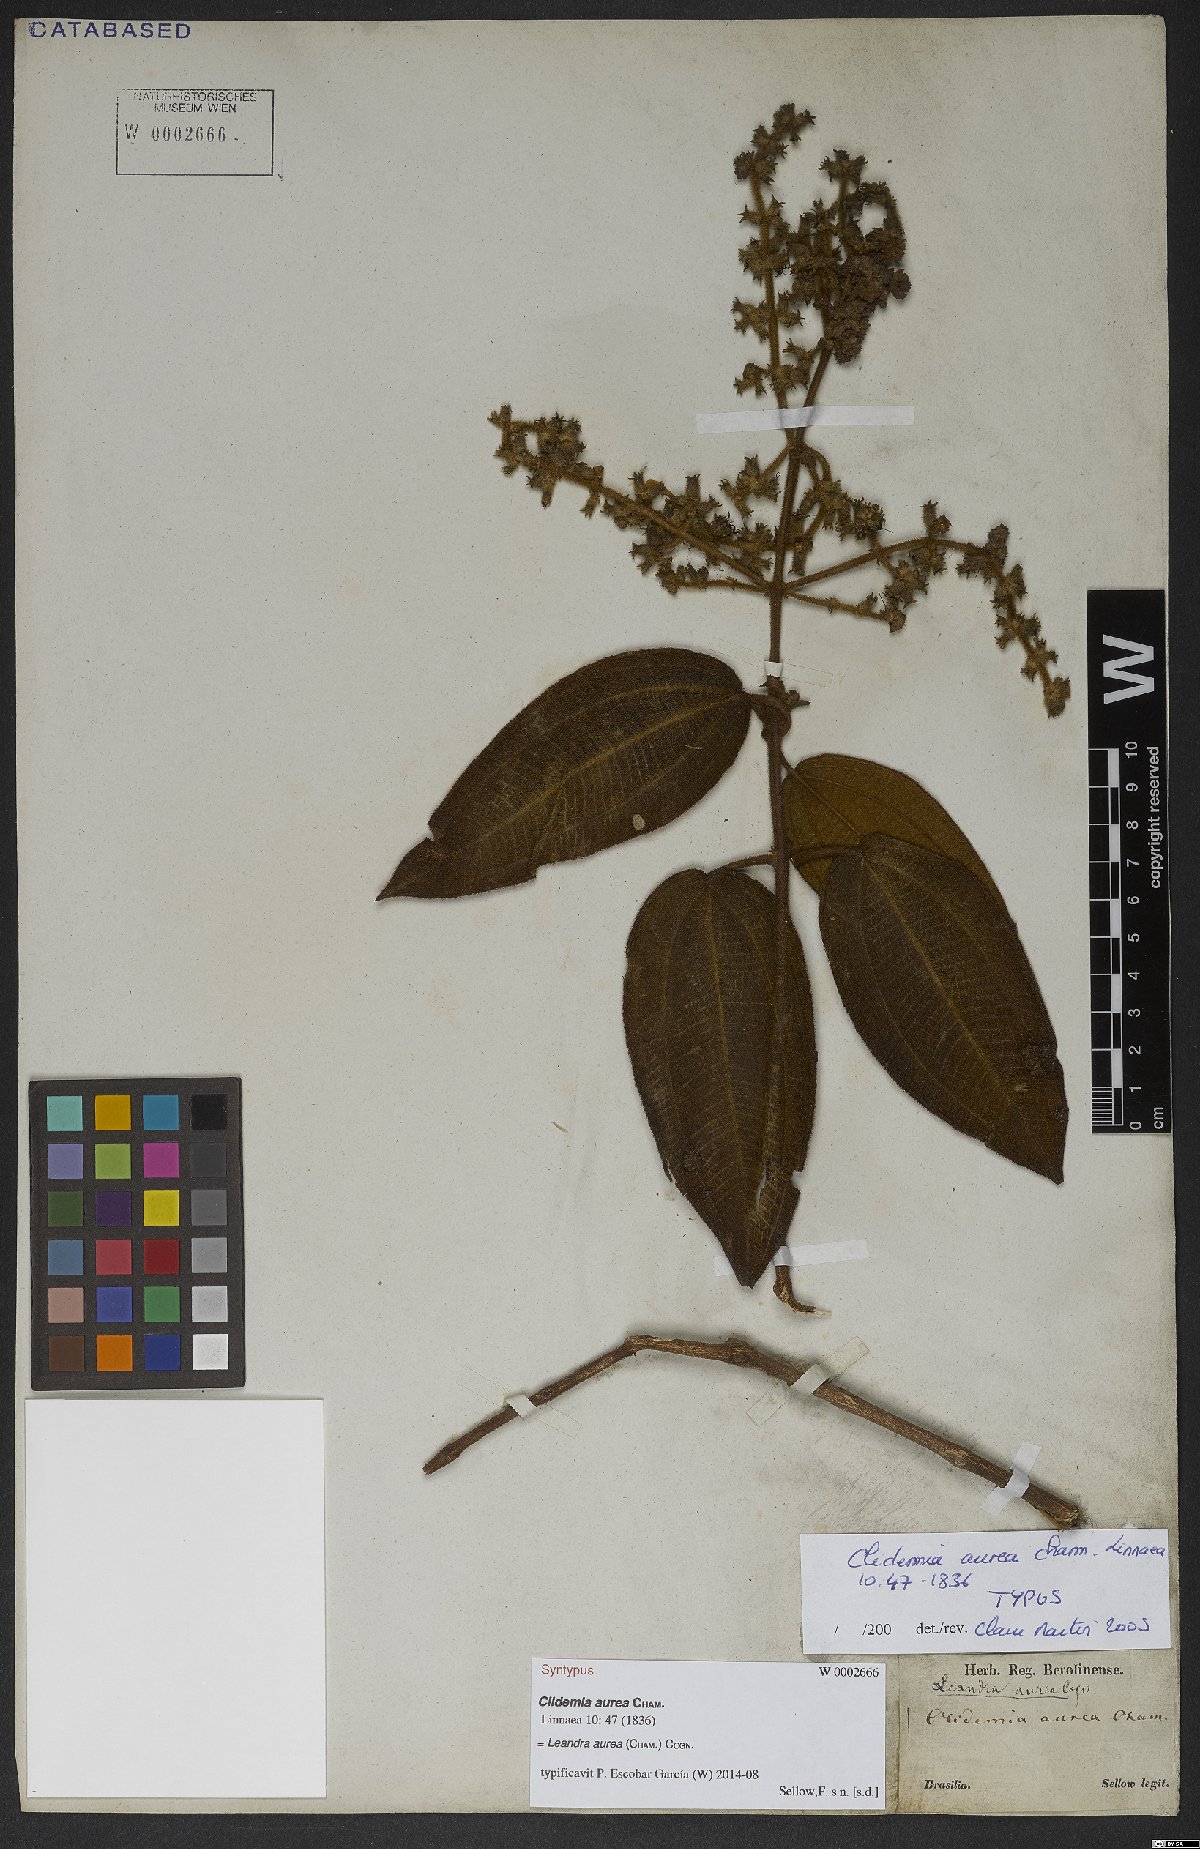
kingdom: Plantae
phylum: Tracheophyta
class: Magnoliopsida
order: Myrtales
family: Melastomataceae
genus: Miconia
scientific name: Miconia auricoma
